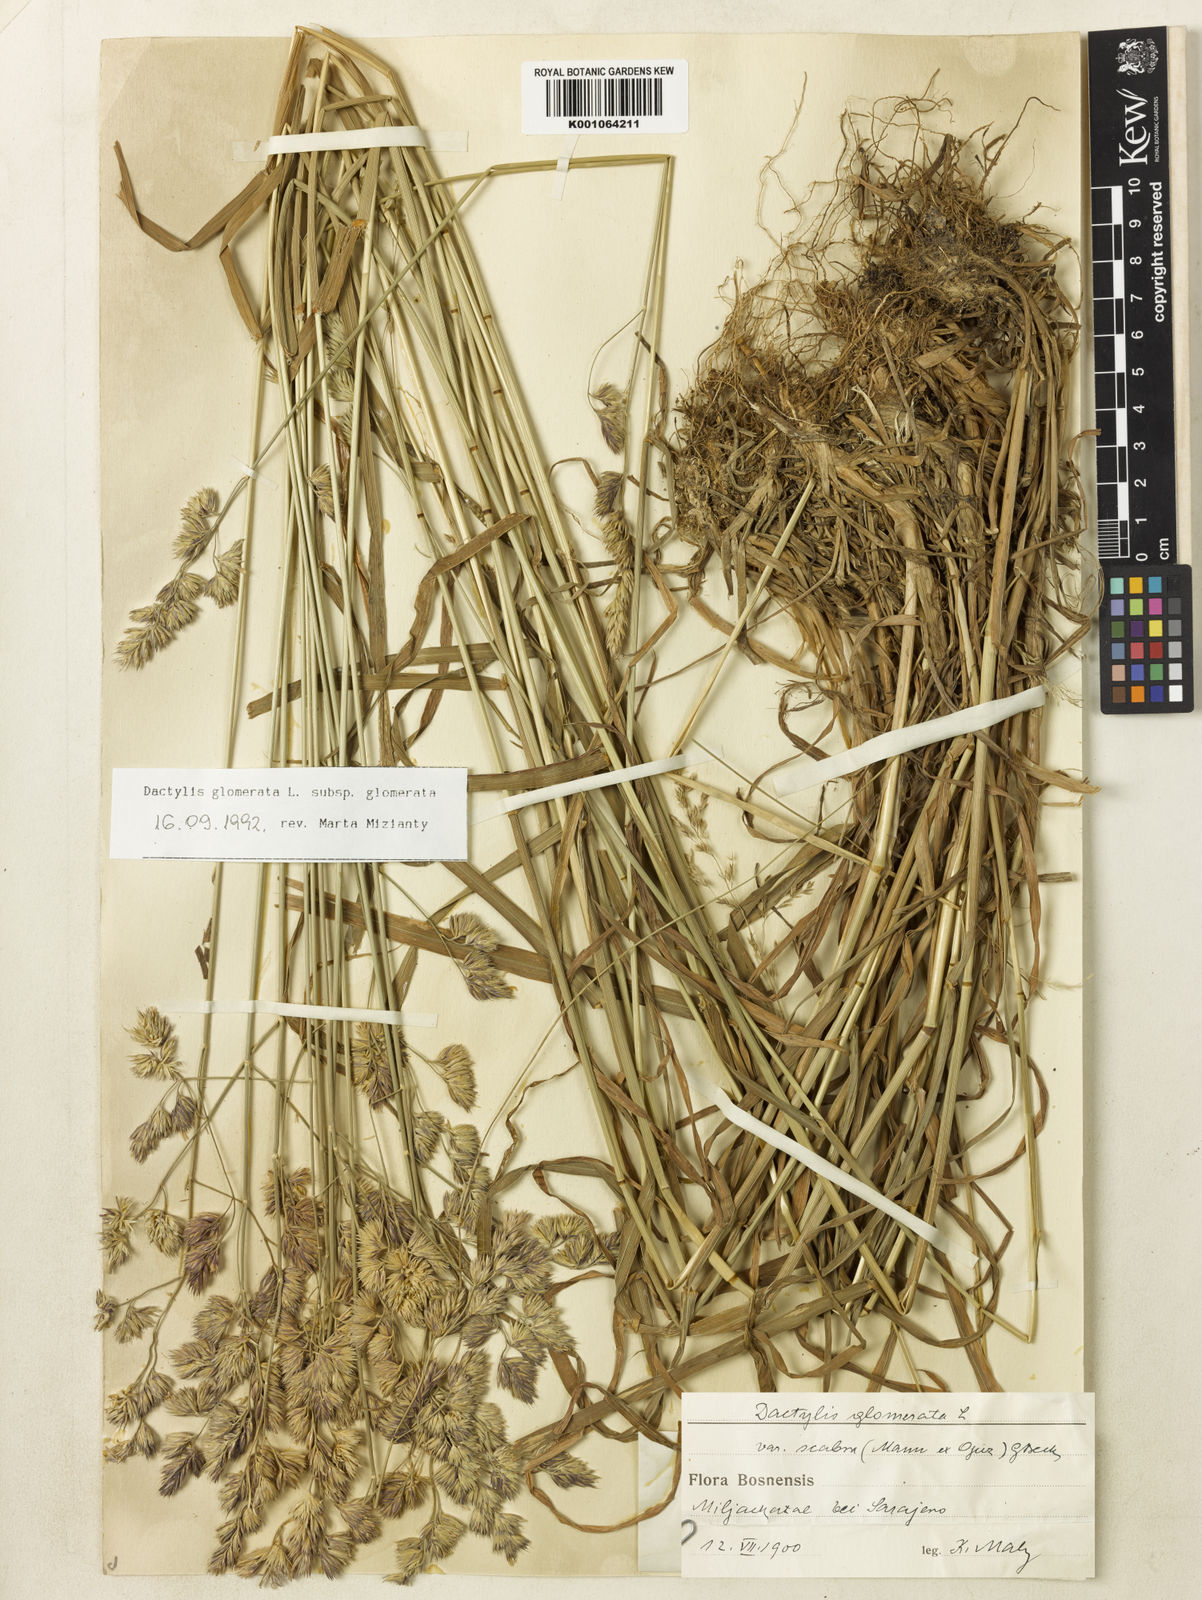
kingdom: Plantae
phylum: Tracheophyta
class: Liliopsida
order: Poales
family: Poaceae
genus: Dactylis
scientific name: Dactylis glomerata
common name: Orchardgrass
